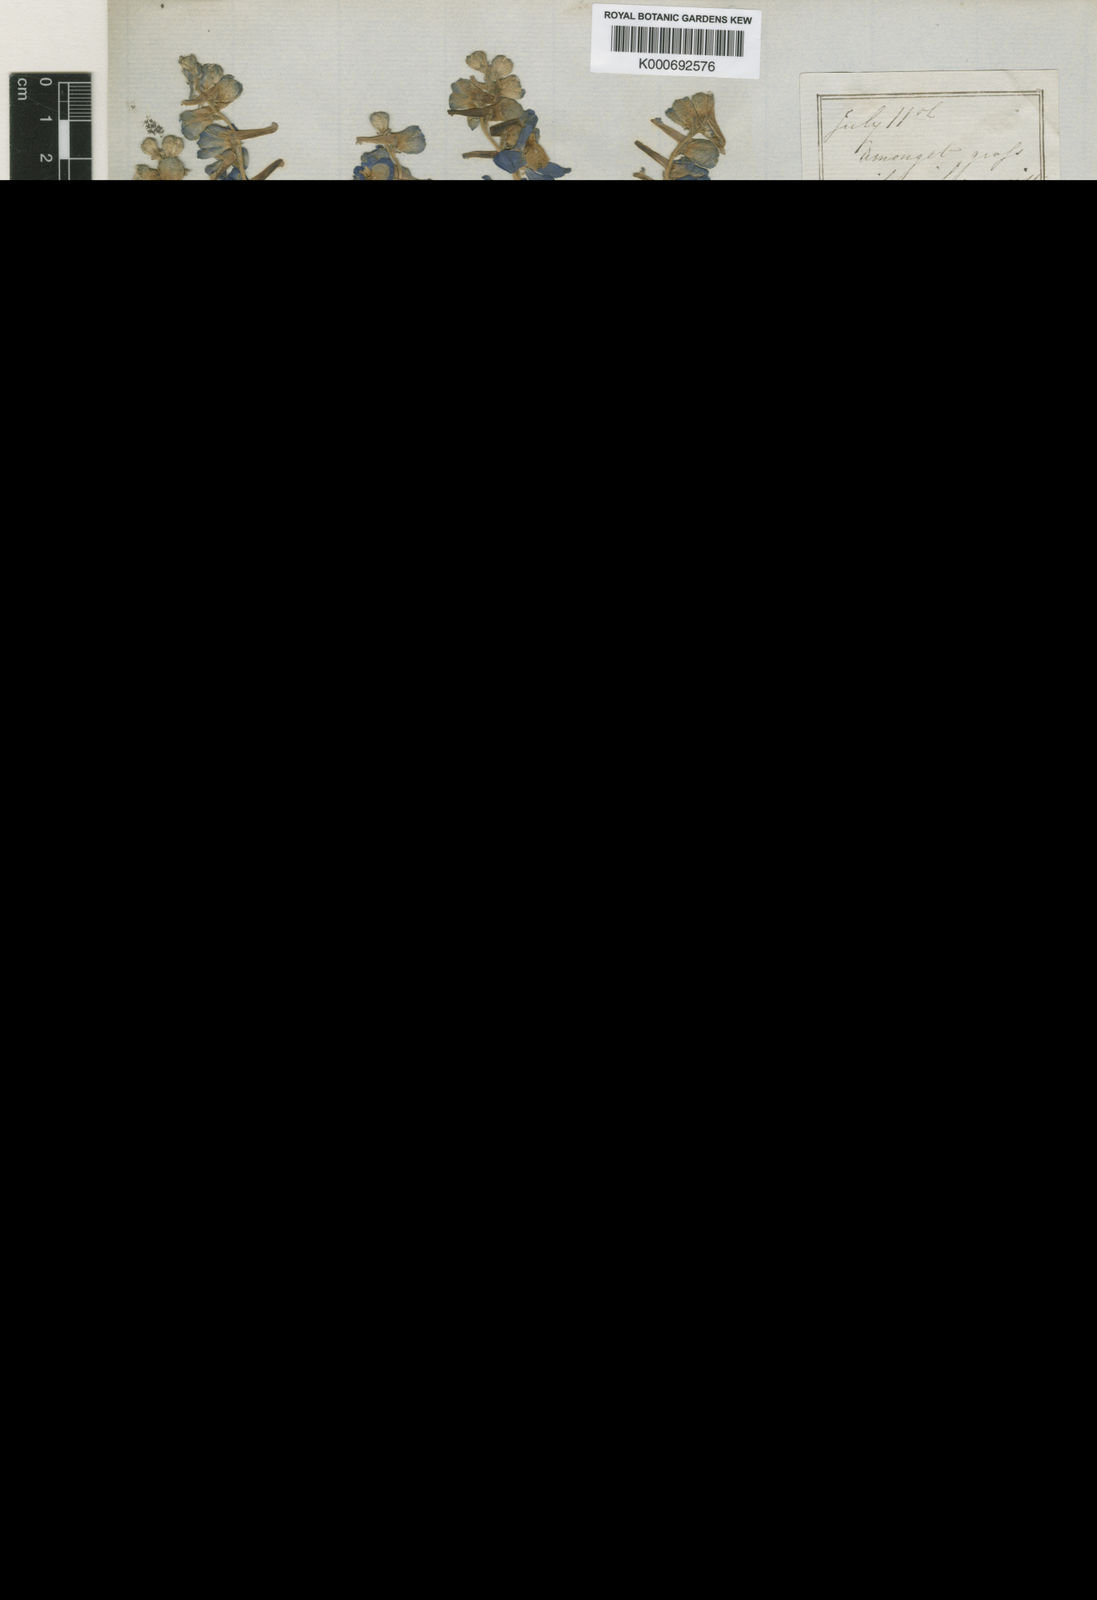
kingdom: Plantae
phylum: Tracheophyta
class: Magnoliopsida
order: Ranunculales
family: Ranunculaceae
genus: Delphinium
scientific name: Delphinium burkei
